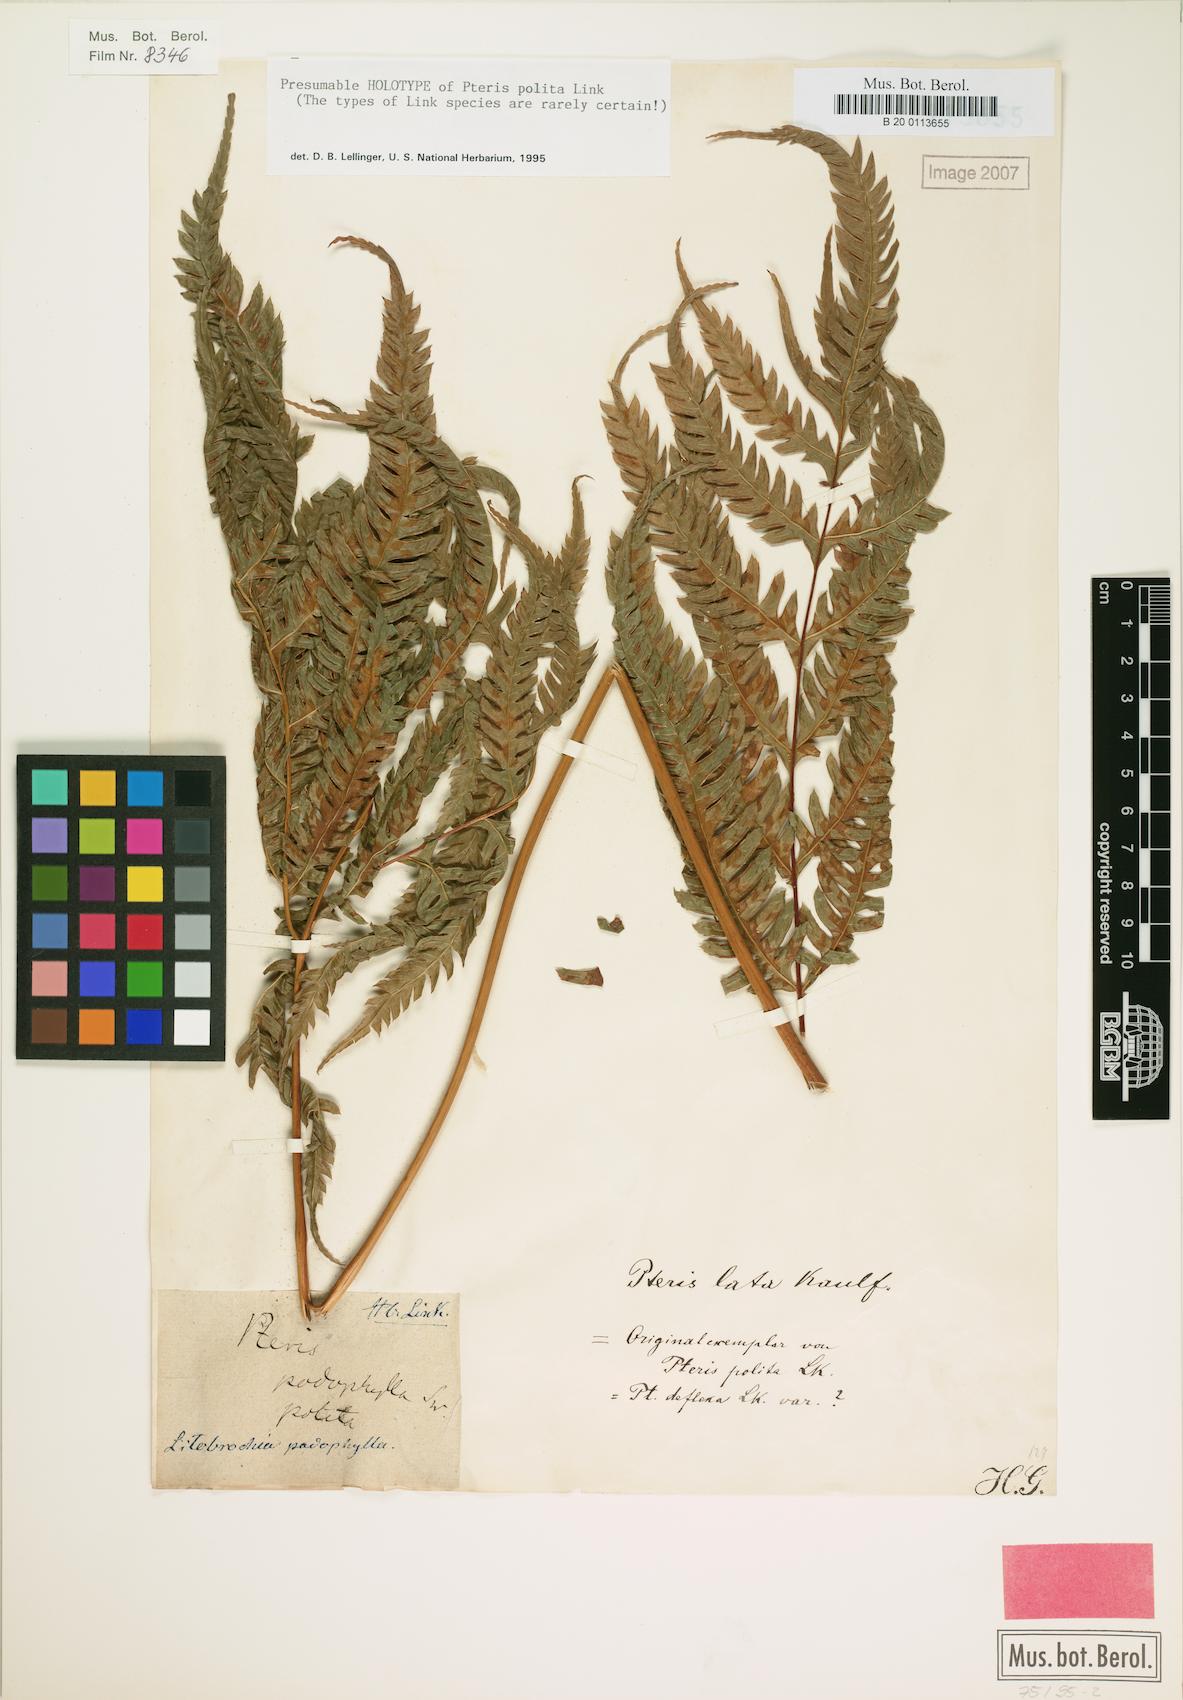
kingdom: Plantae
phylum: Tracheophyta
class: Polypodiopsida
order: Polypodiales
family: Pteridaceae
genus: Pteris
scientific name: Pteris deflexa
